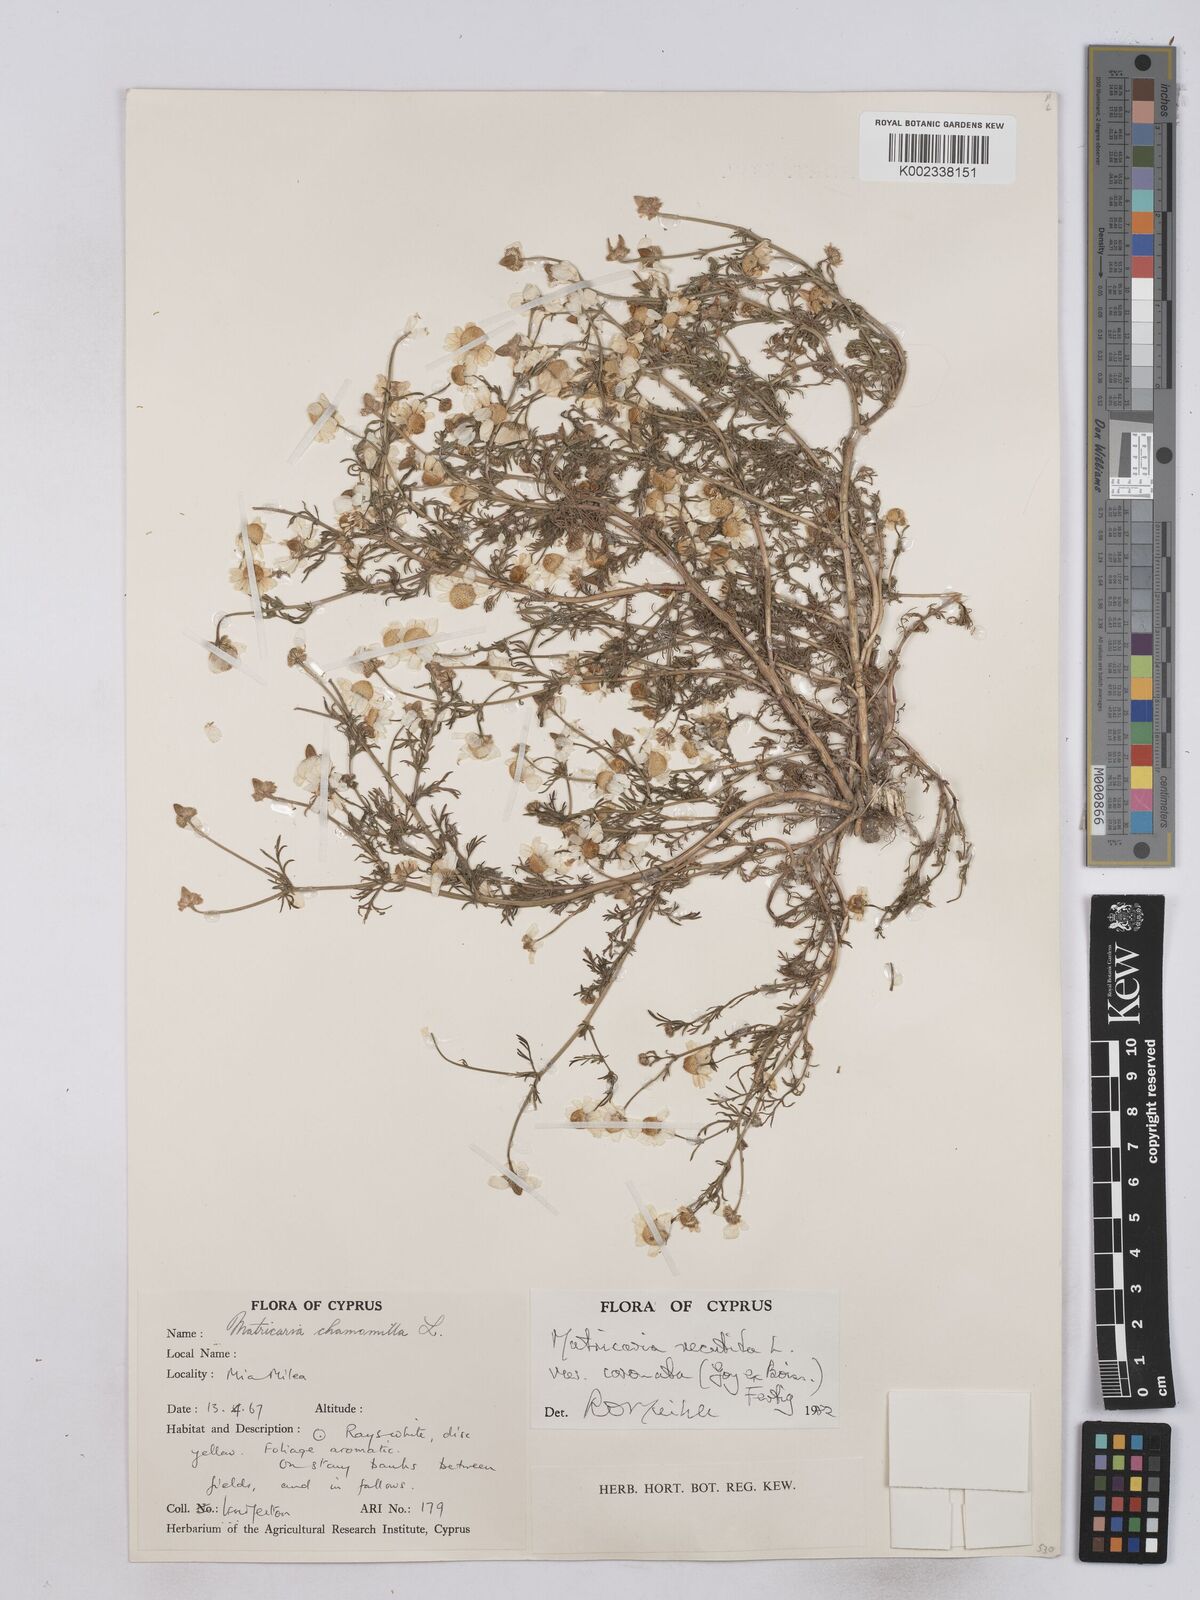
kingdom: Plantae
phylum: Tracheophyta
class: Magnoliopsida
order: Asterales
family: Asteraceae
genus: Matricaria
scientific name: Matricaria chamomilla
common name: Scented mayweed
